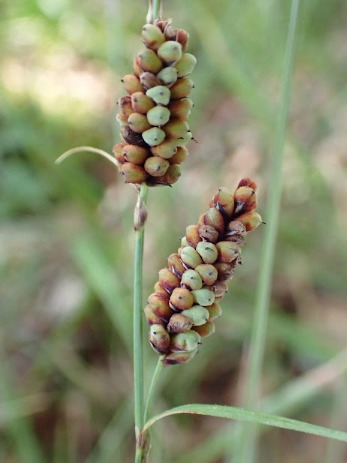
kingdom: Plantae
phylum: Tracheophyta
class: Liliopsida
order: Poales
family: Cyperaceae
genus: Carex
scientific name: Carex flacca
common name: Blågrøn star
